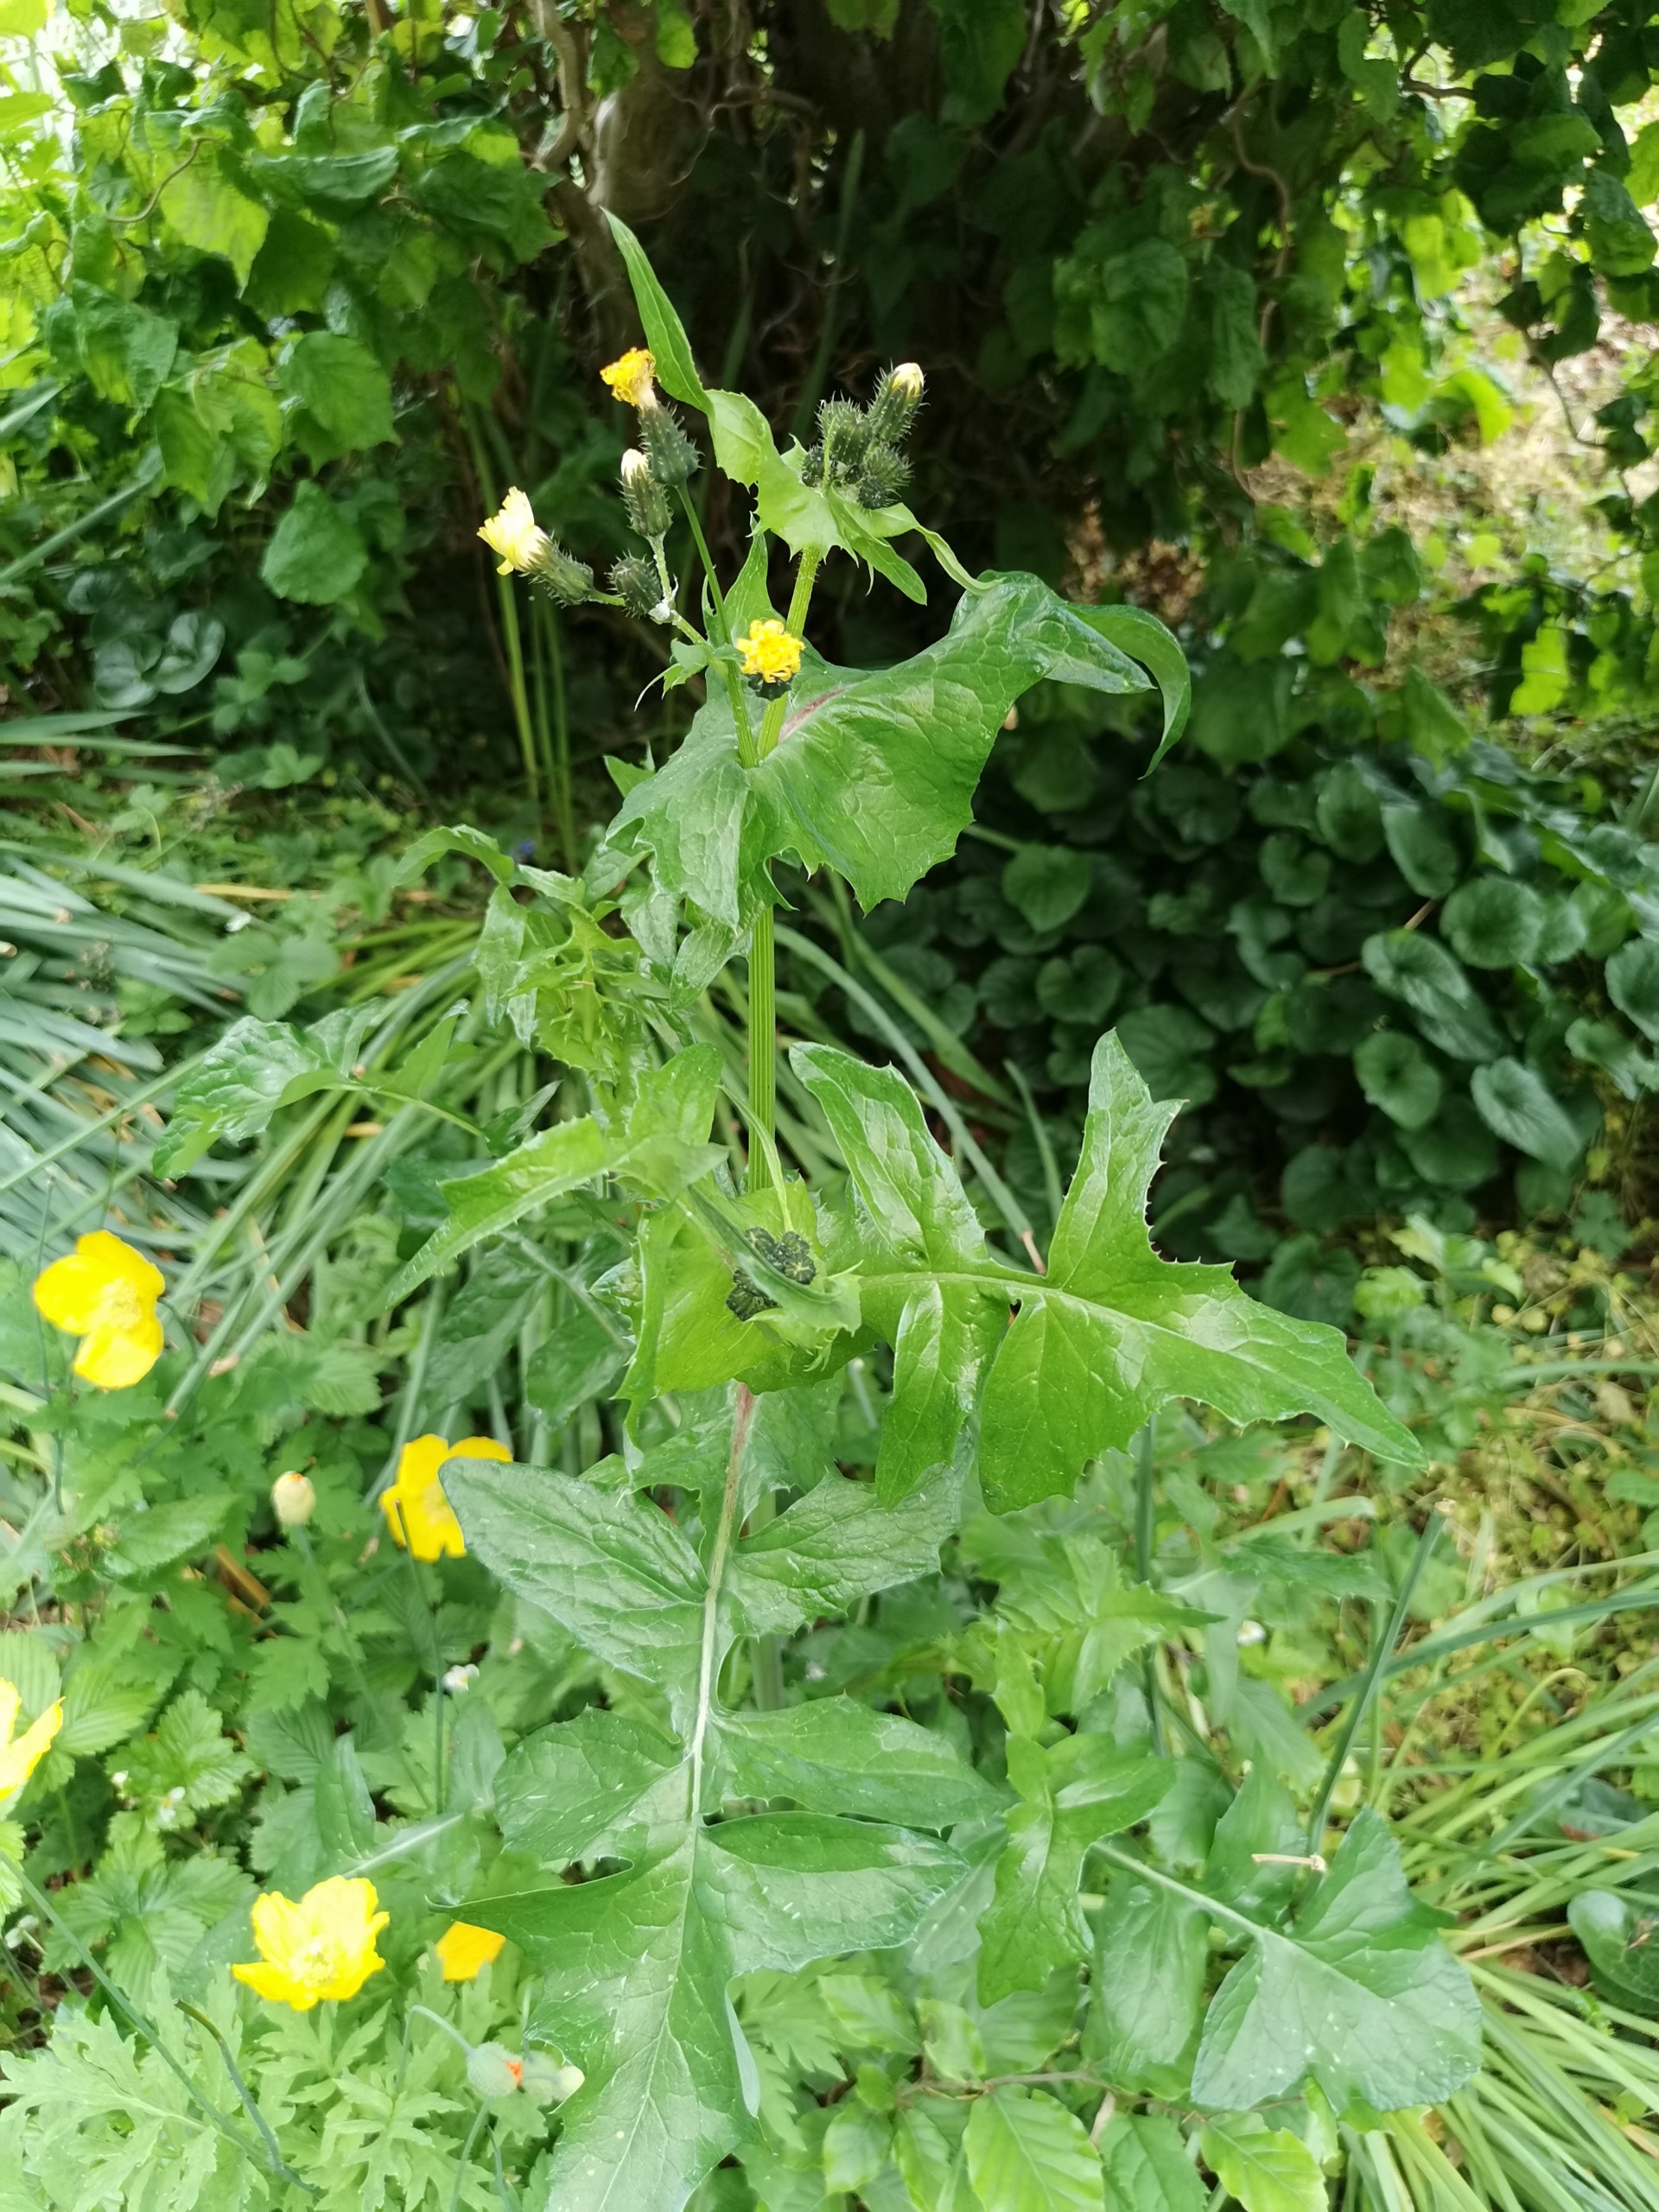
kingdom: Plantae
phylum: Tracheophyta
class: Magnoliopsida
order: Asterales
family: Asteraceae
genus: Sonchus
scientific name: Sonchus oleraceus
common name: Almindelig svinemælk
